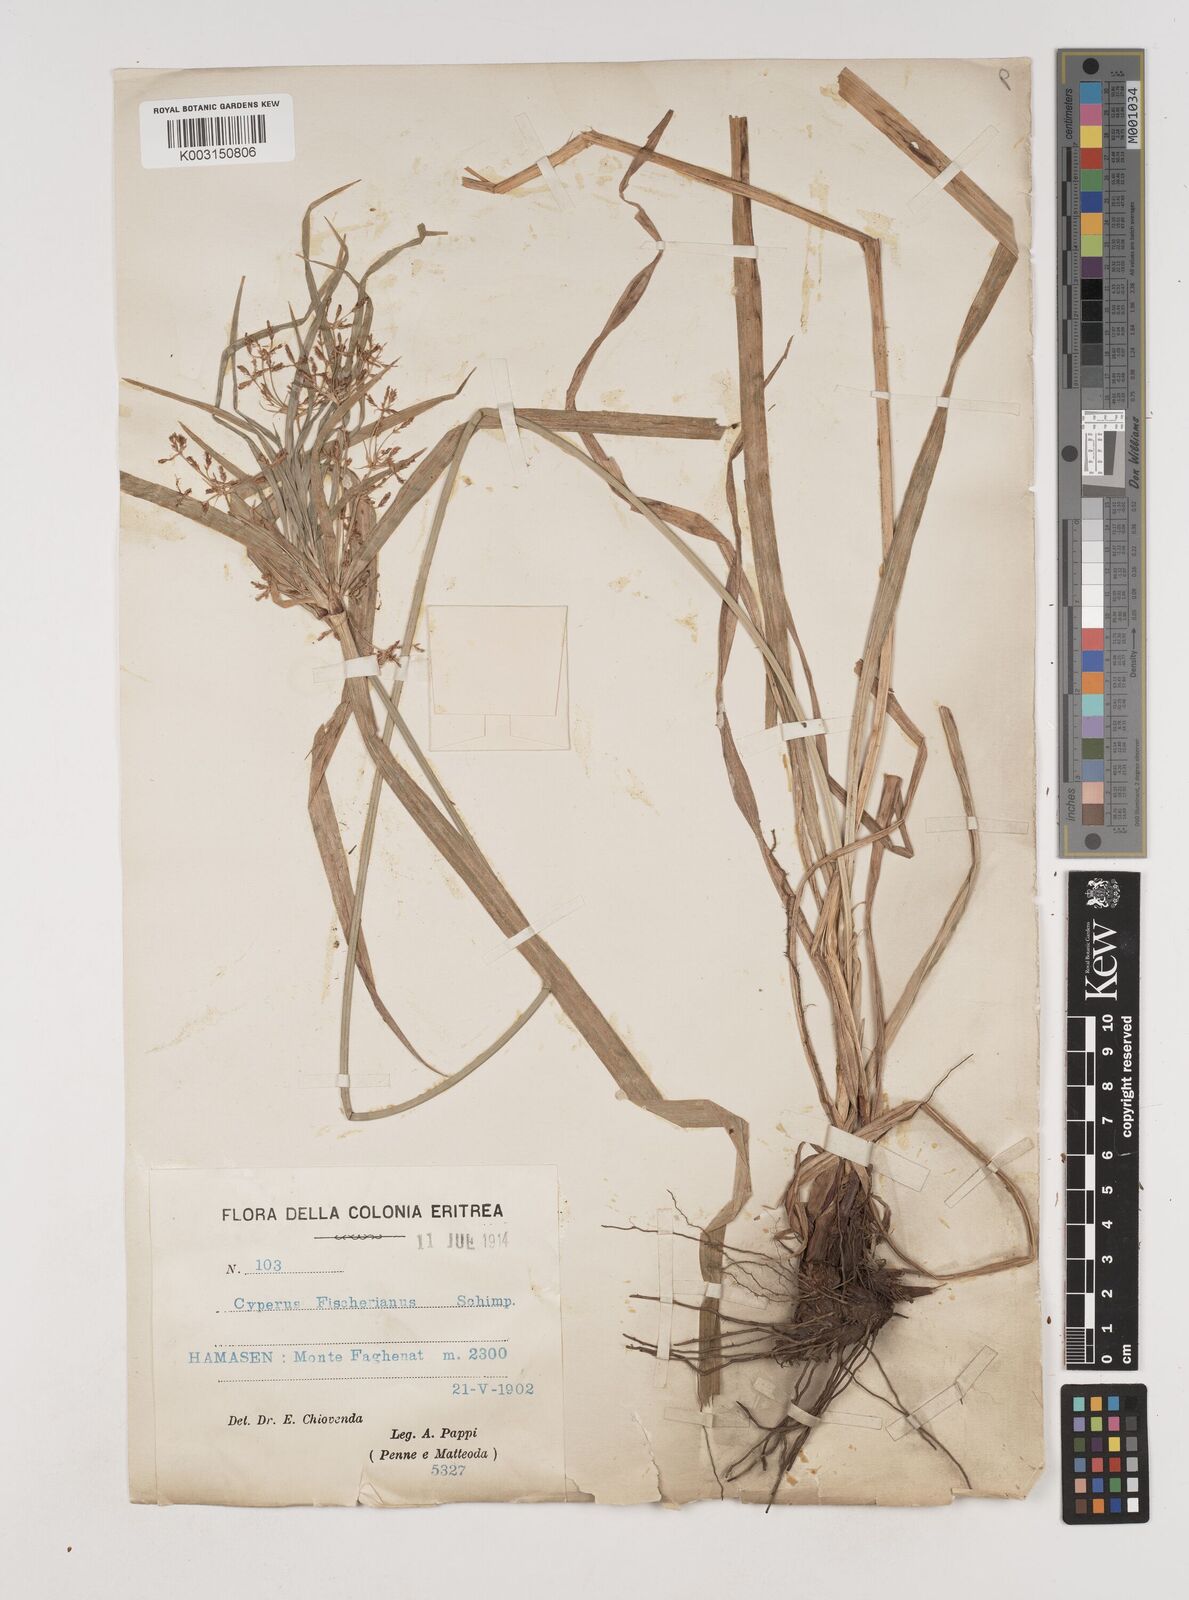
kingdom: Plantae
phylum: Tracheophyta
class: Liliopsida
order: Poales
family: Cyperaceae
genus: Cyperus
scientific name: Cyperus fischerianus
